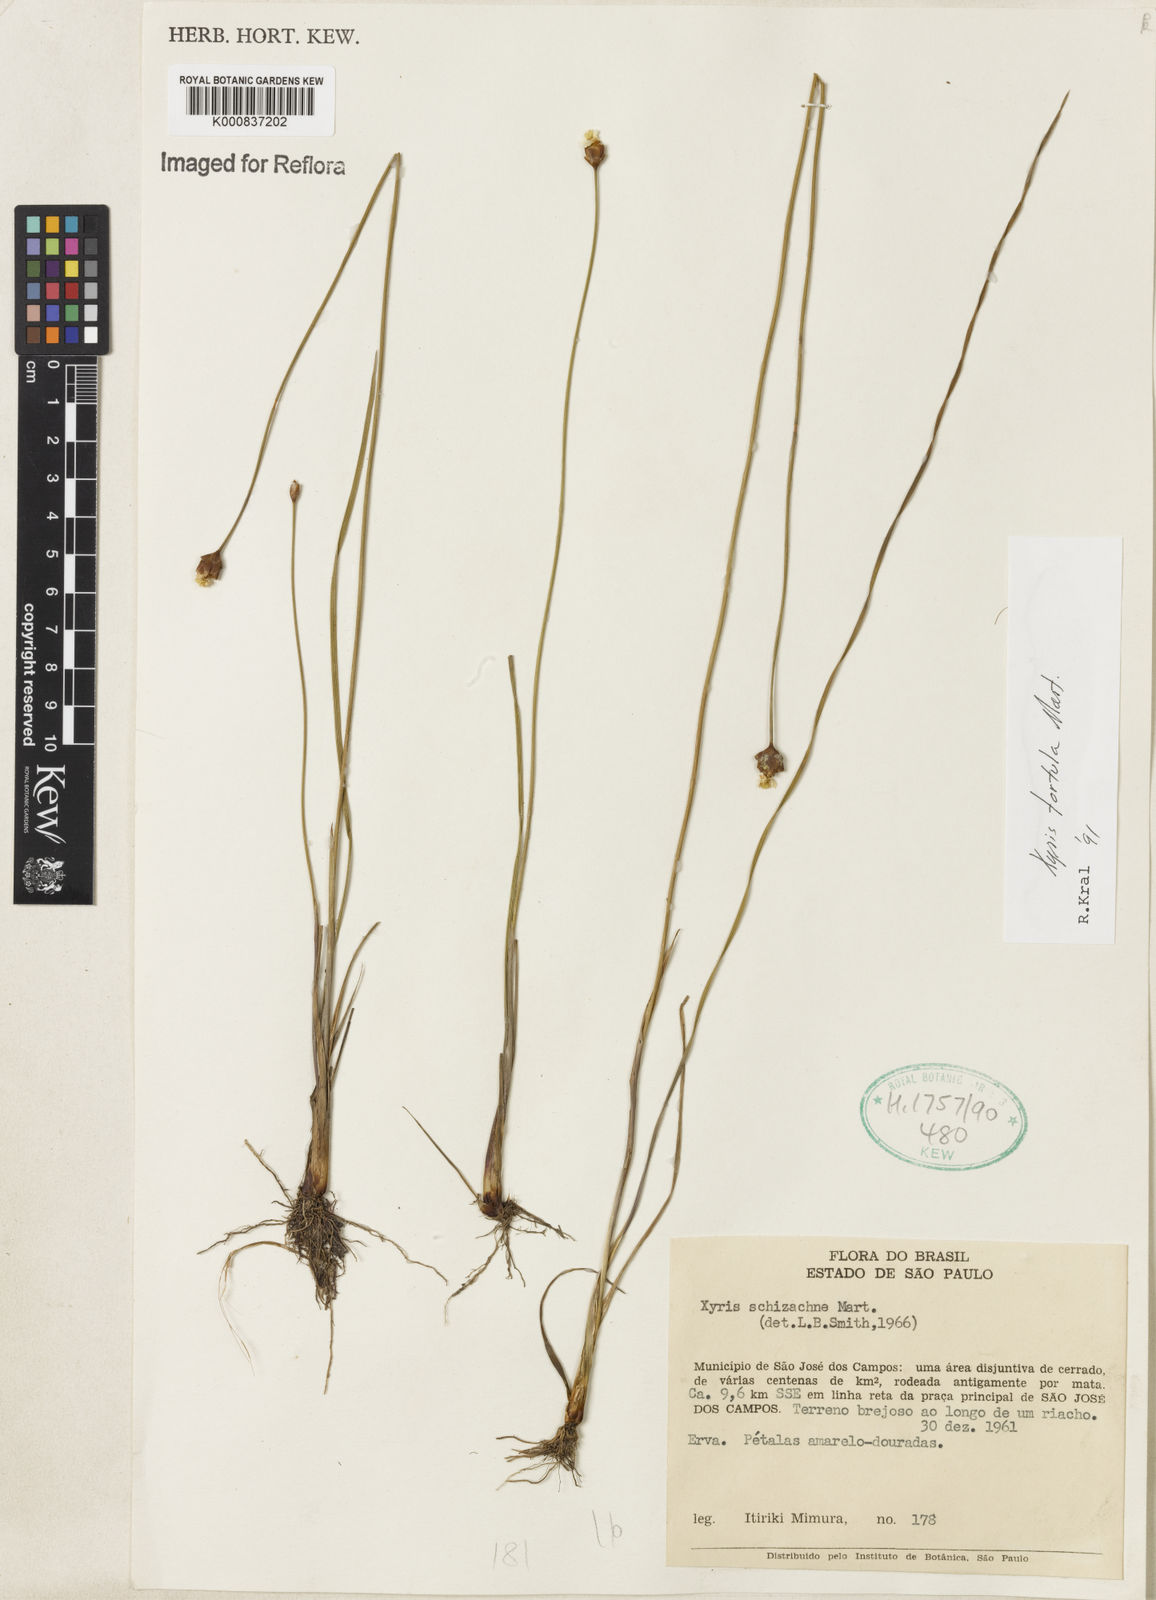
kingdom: Plantae
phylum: Tracheophyta
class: Liliopsida
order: Poales
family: Xyridaceae
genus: Xyris
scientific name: Xyris tortula
